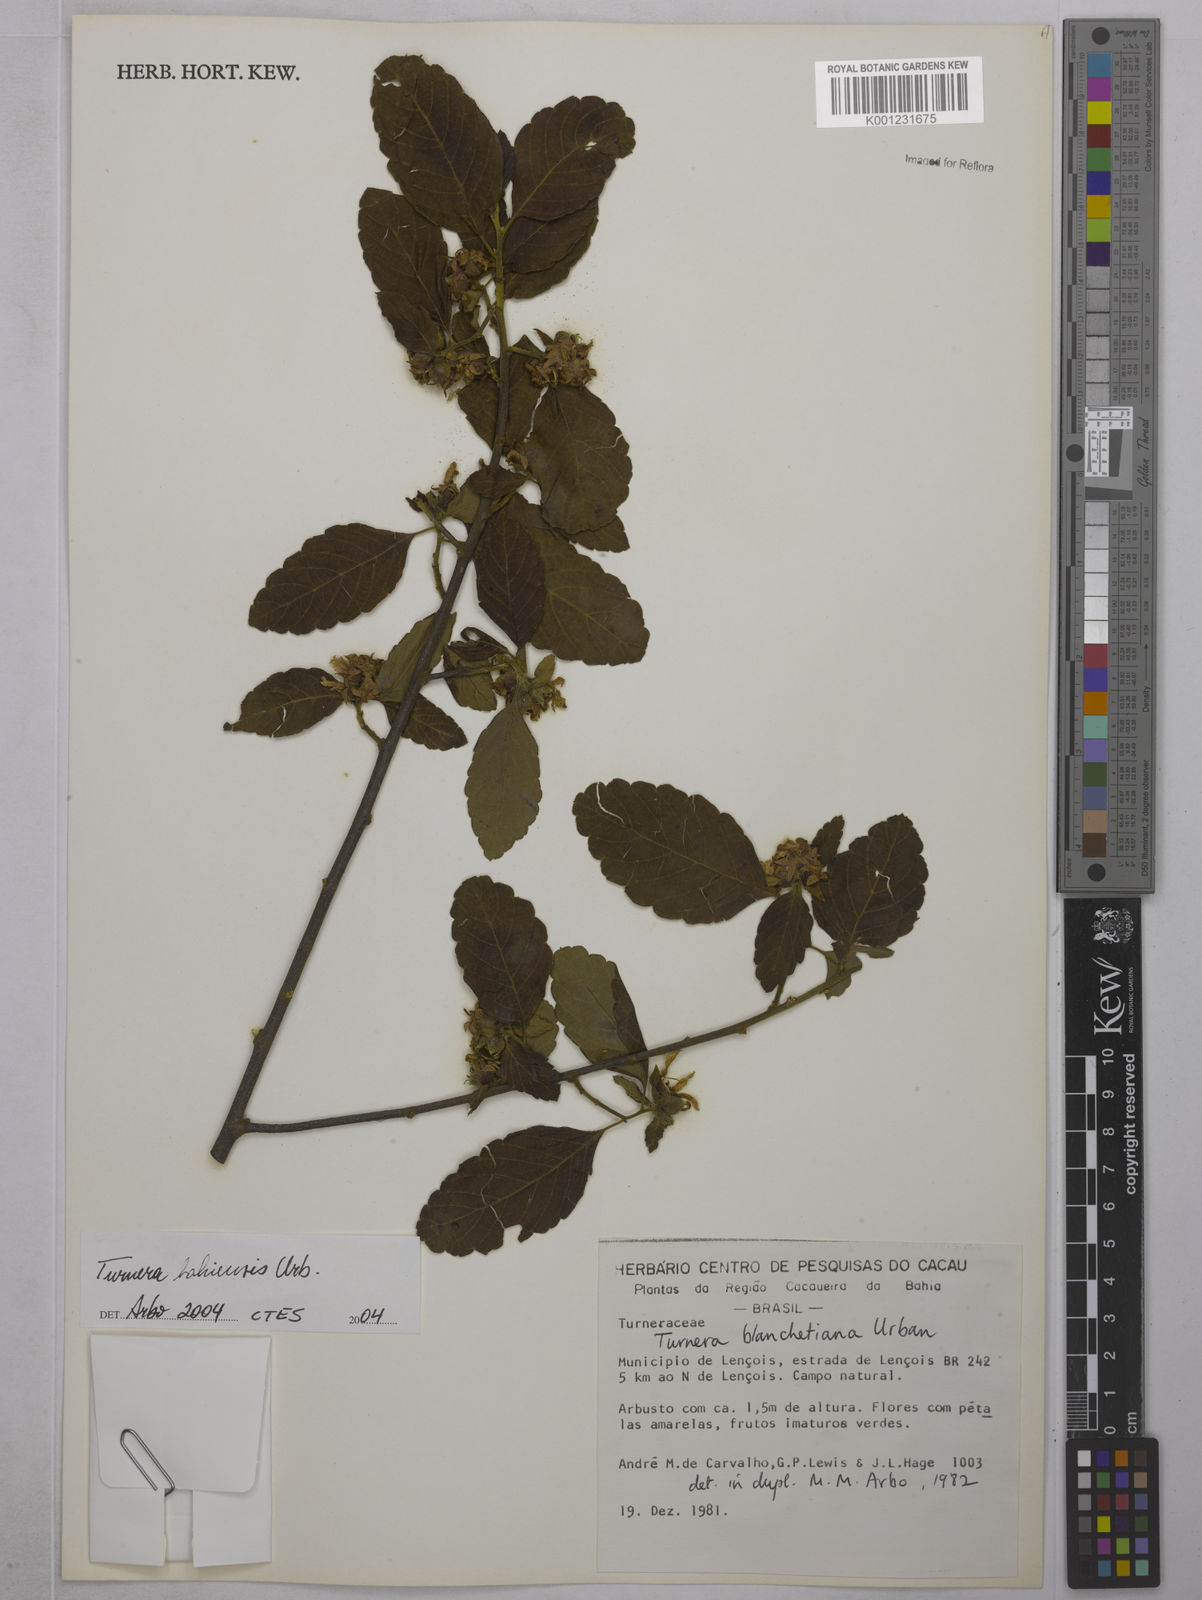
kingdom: Plantae
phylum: Tracheophyta
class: Magnoliopsida
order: Malpighiales
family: Turneraceae
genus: Turnera
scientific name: Turnera bahiensis
